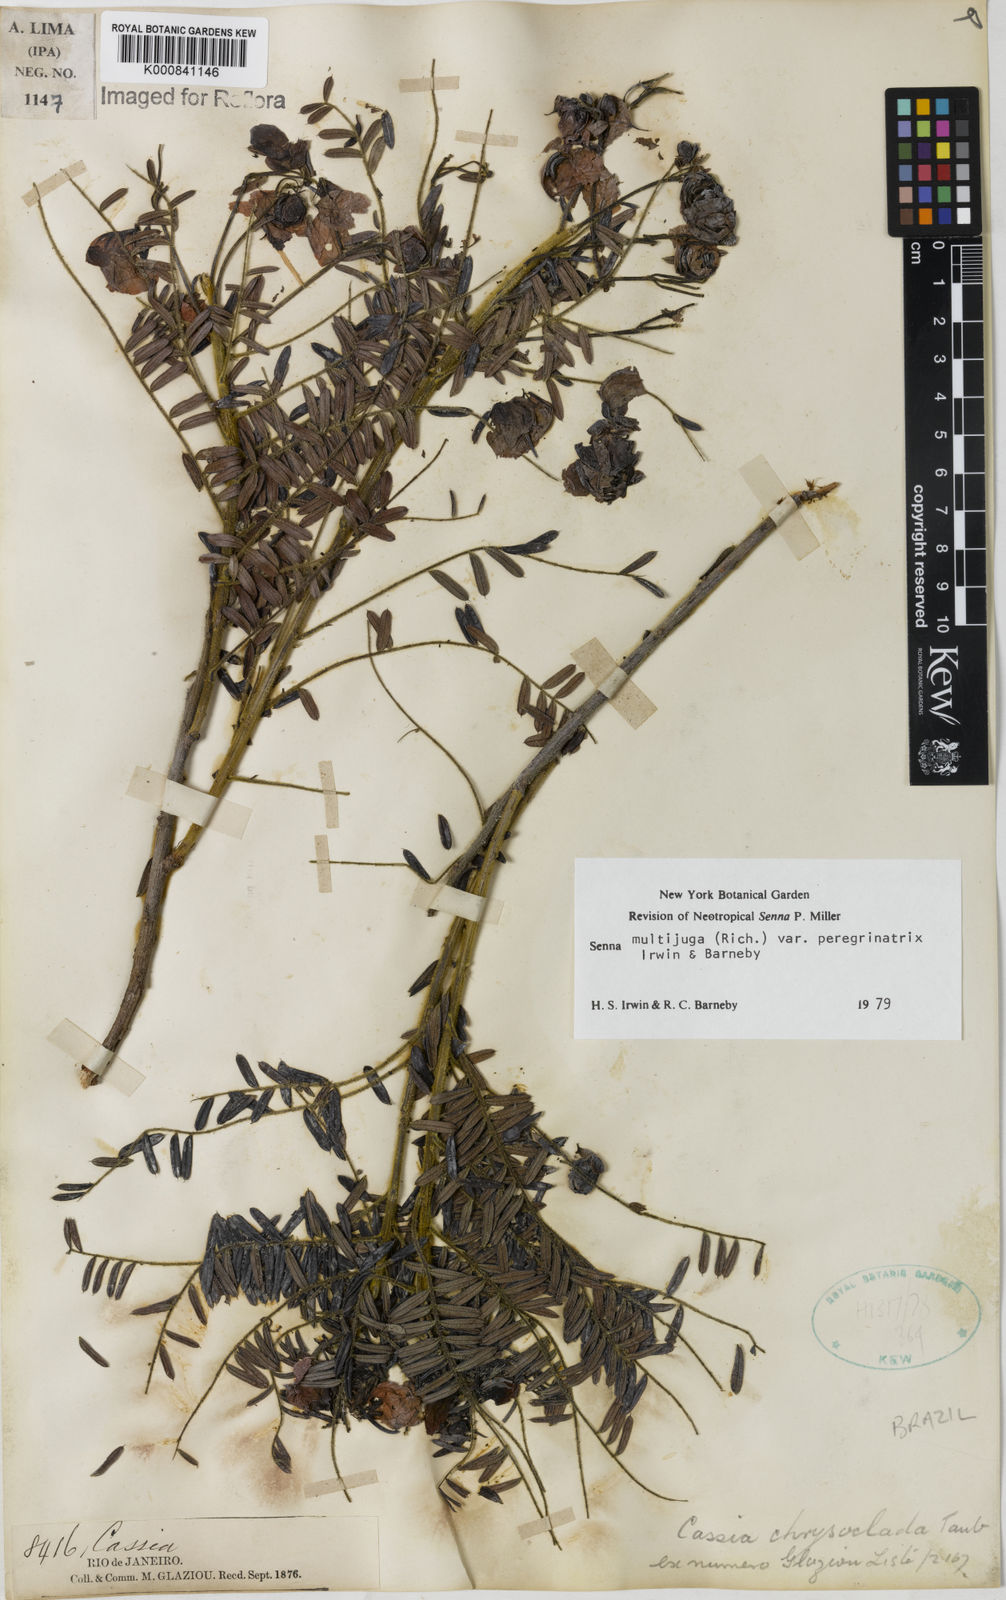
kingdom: Plantae
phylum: Tracheophyta
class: Magnoliopsida
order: Fabales
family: Fabaceae
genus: Senna
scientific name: Senna multijuga
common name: False sicklepod
